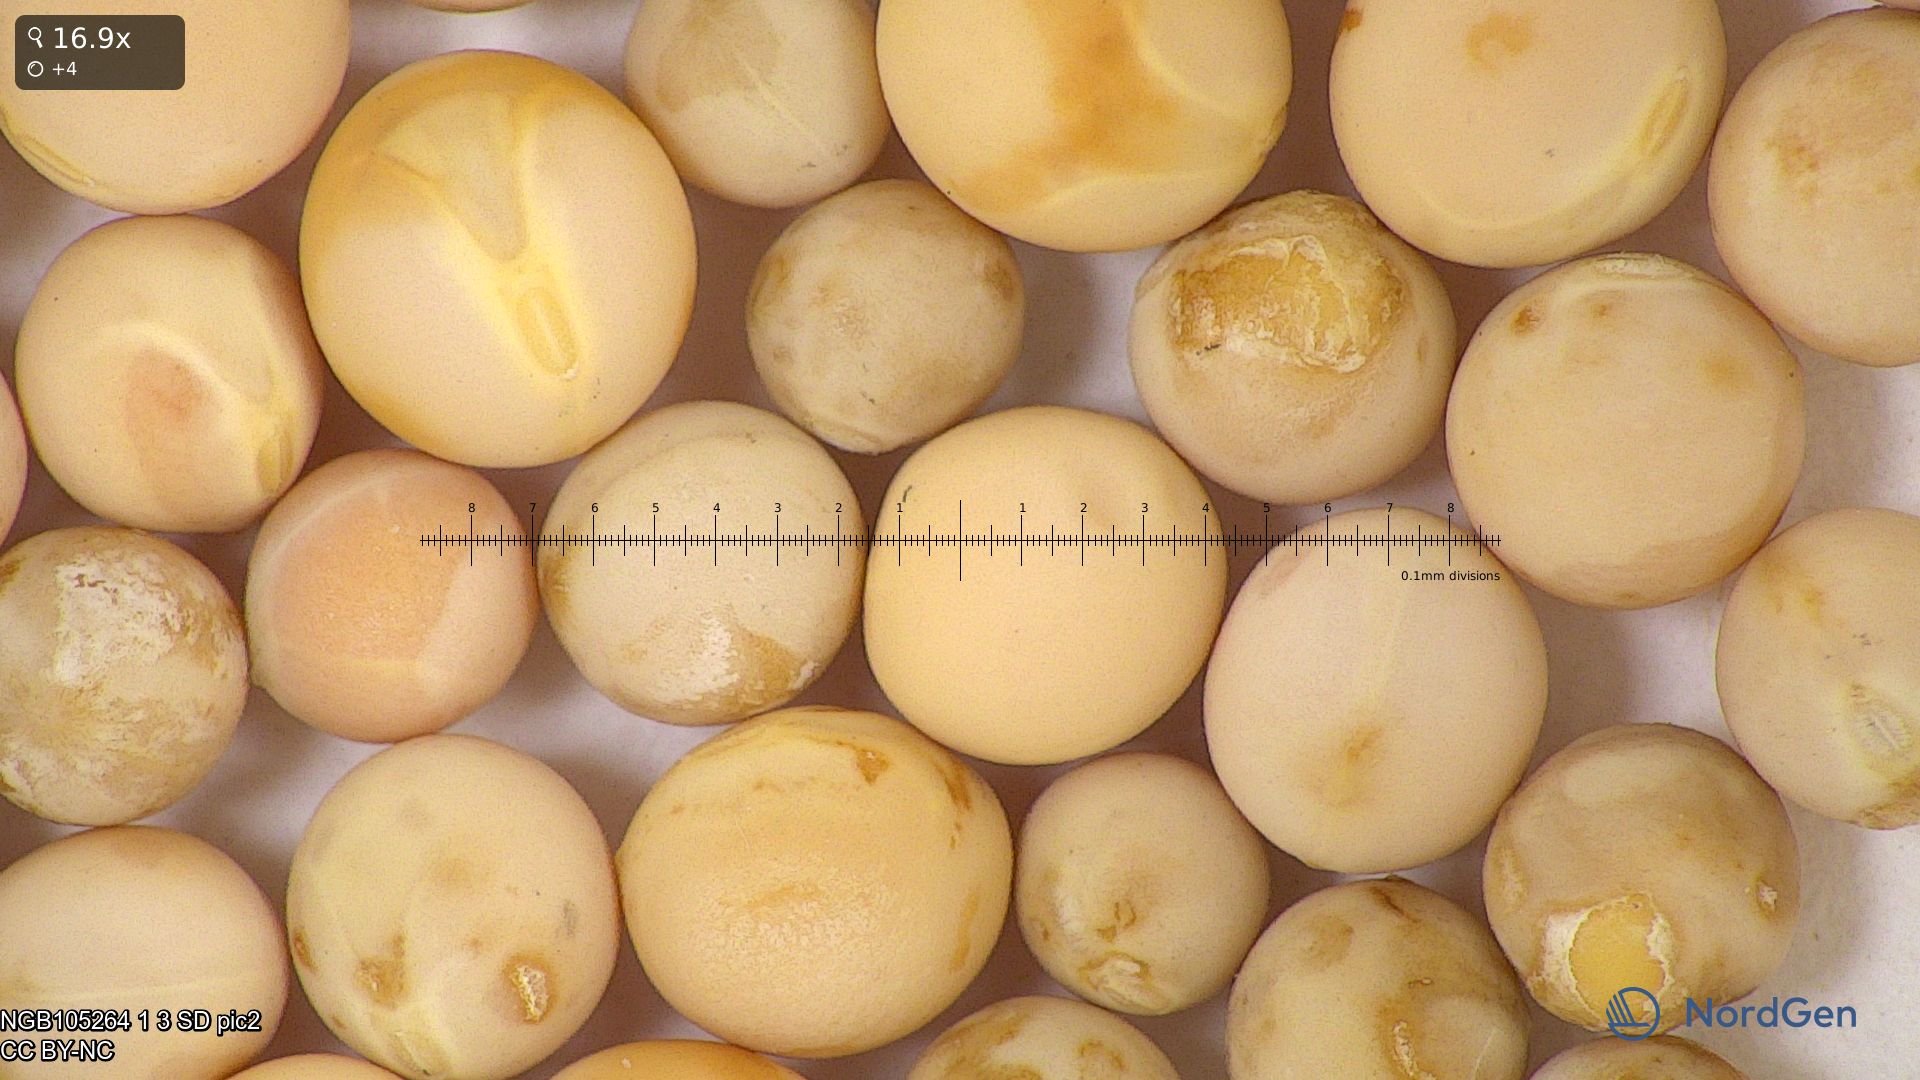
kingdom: Plantae
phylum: Tracheophyta
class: Magnoliopsida
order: Fabales
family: Fabaceae
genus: Lathyrus
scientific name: Lathyrus oleraceus
